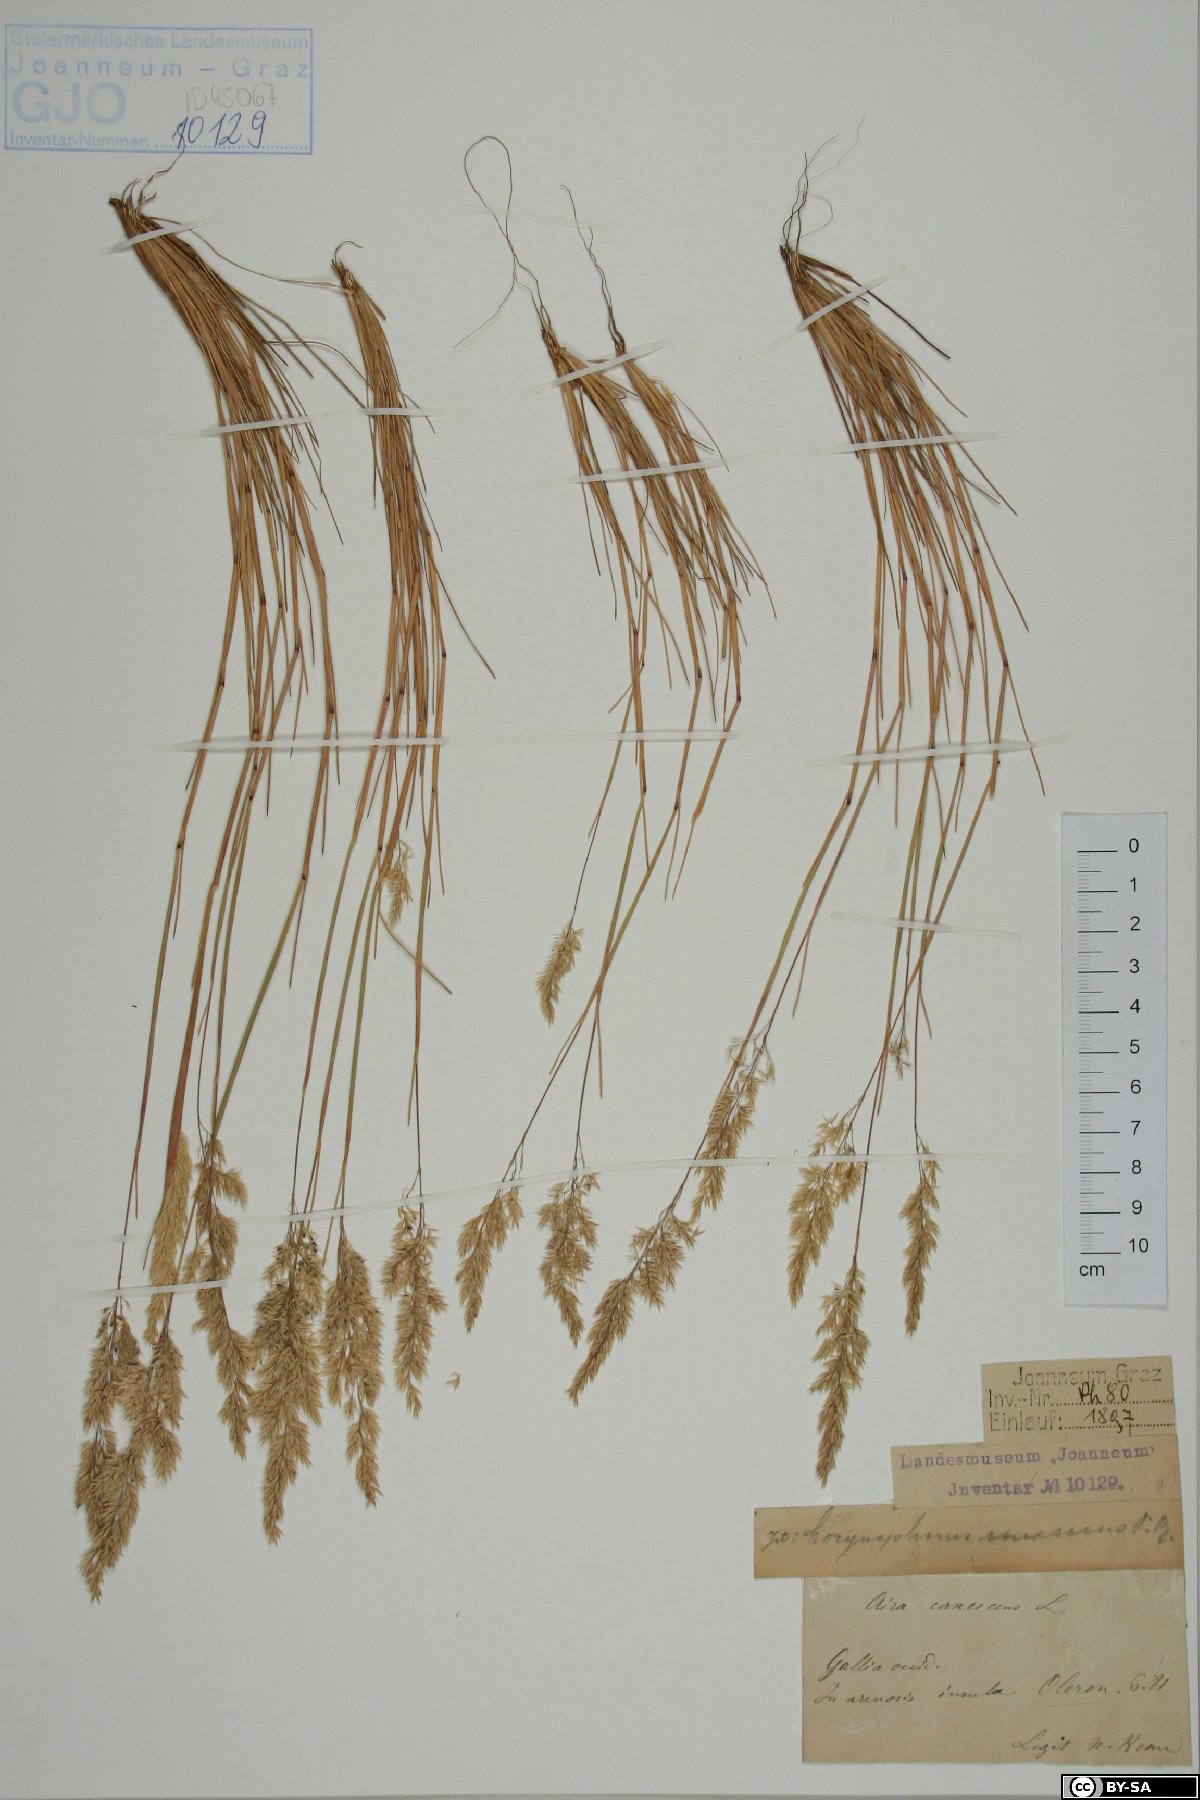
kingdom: Plantae
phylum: Tracheophyta
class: Liliopsida
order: Poales
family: Poaceae
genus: Corynephorus
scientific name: Corynephorus canescens
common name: Grey hair-grass
